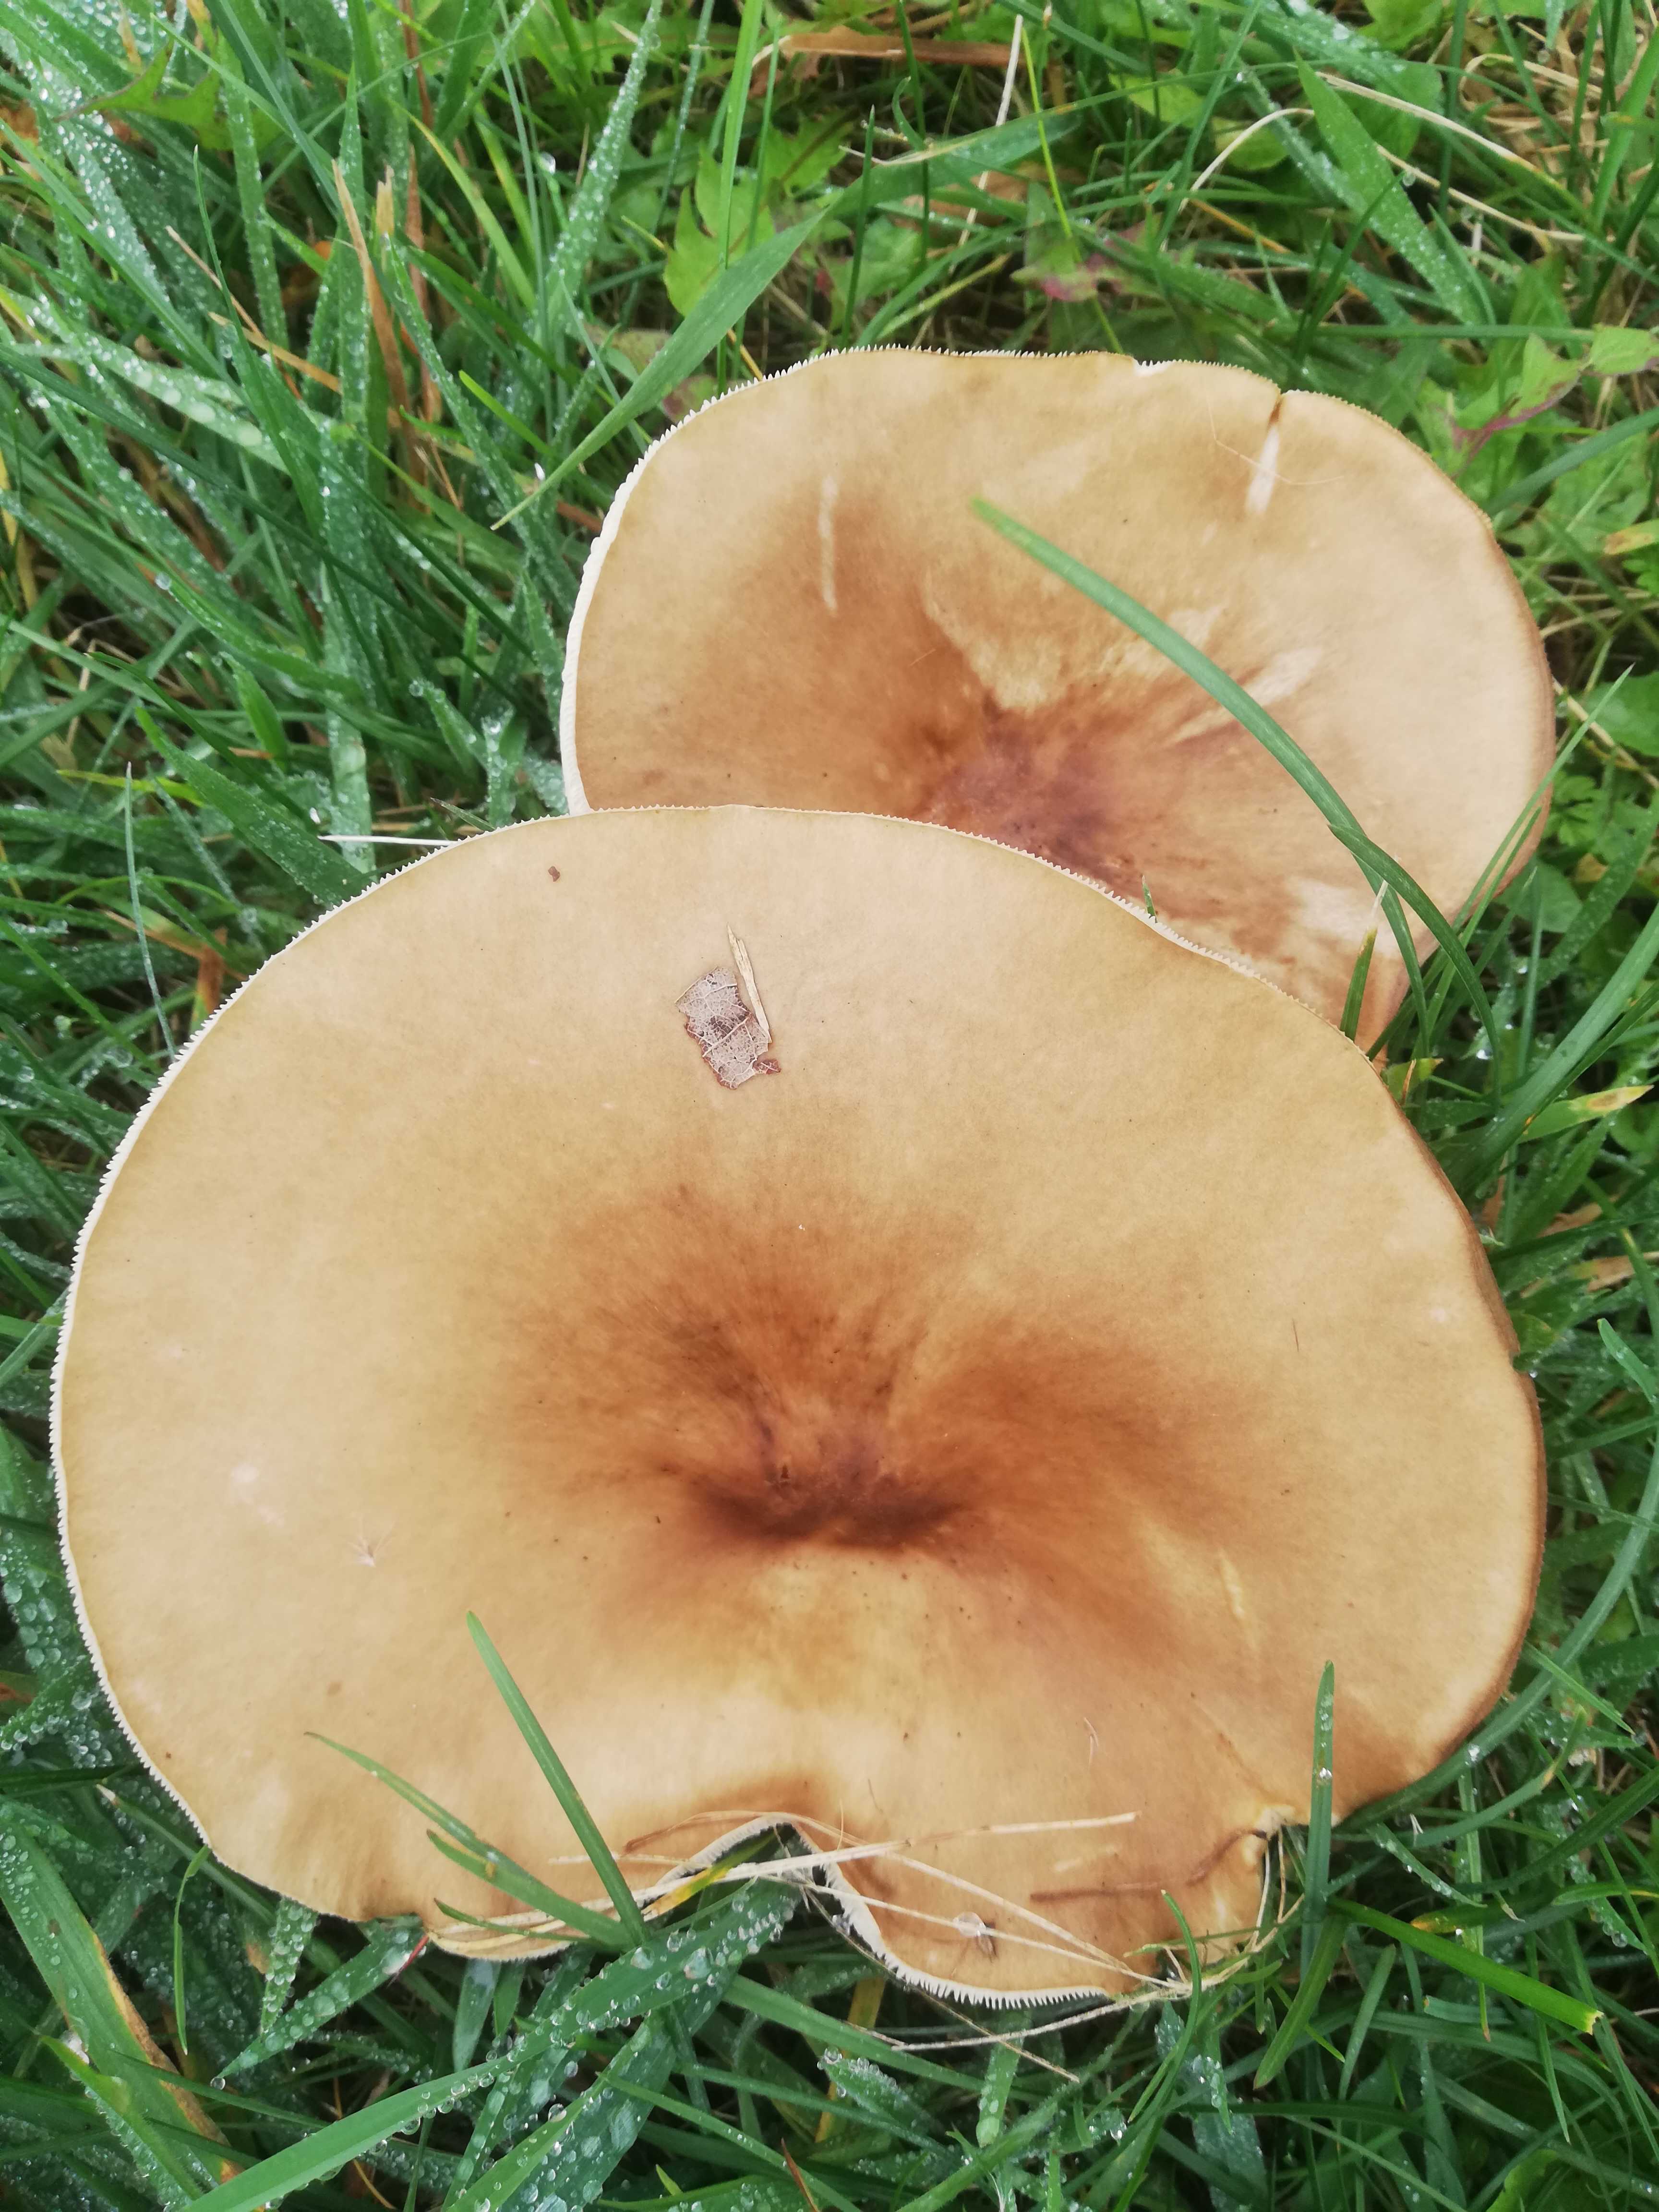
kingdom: Fungi
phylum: Basidiomycota
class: Agaricomycetes
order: Agaricales
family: Tricholomataceae
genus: Melanoleuca
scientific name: Melanoleuca grammopodia
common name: stribestokket munkehat
